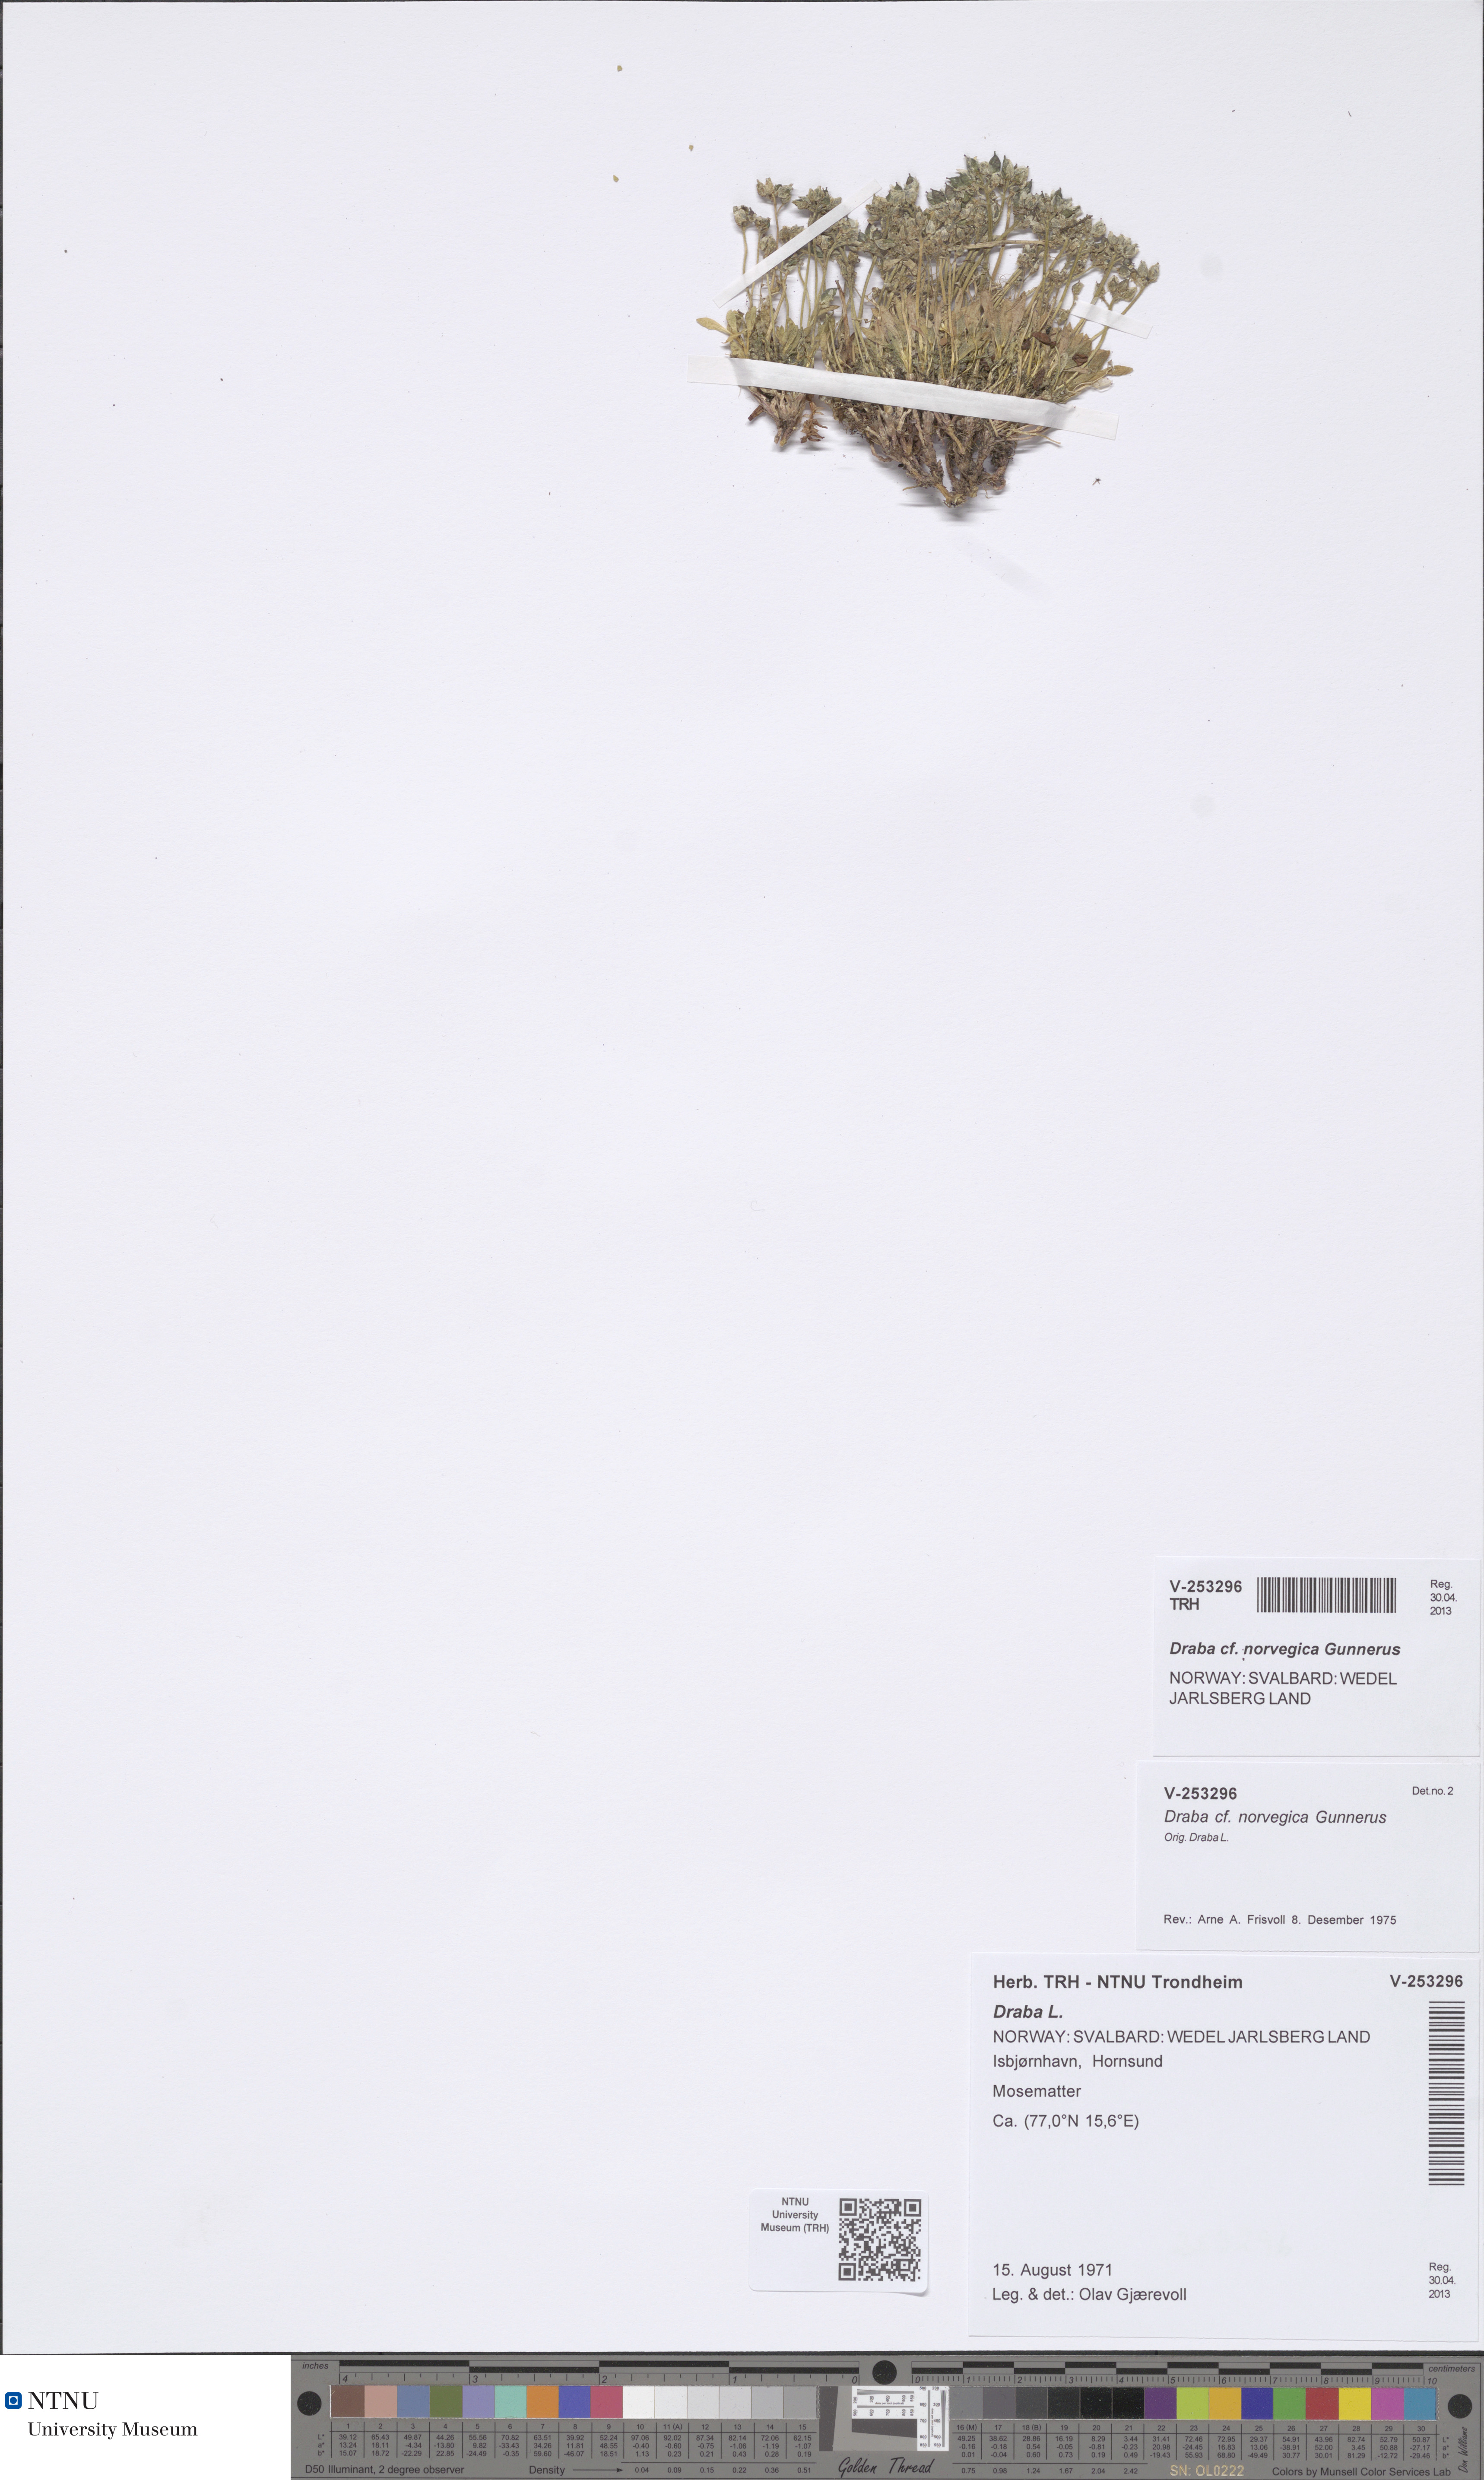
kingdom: Plantae
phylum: Tracheophyta
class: Magnoliopsida
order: Brassicales
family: Brassicaceae
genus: Draba
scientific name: Draba norvegica
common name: Rock whitlowgrass
